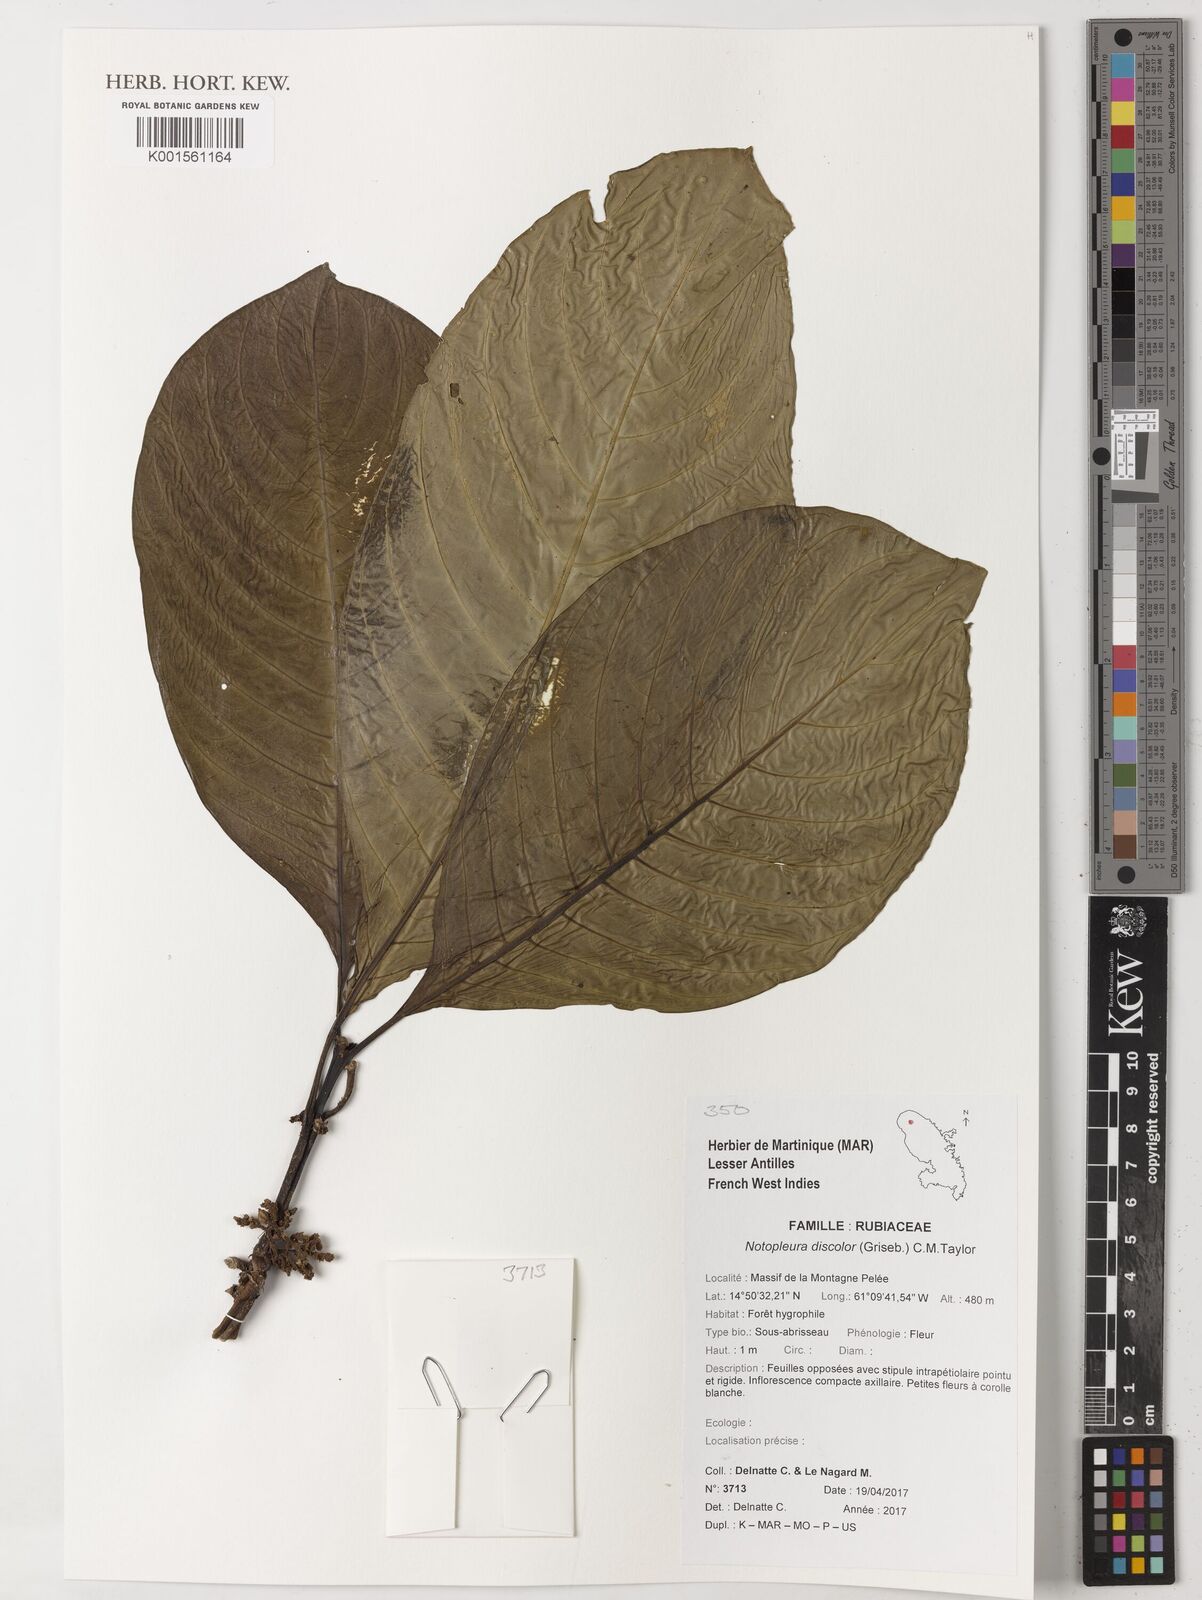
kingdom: Plantae
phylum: Tracheophyta
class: Magnoliopsida
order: Gentianales
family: Rubiaceae
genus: Notopleura
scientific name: Notopleura discolor
